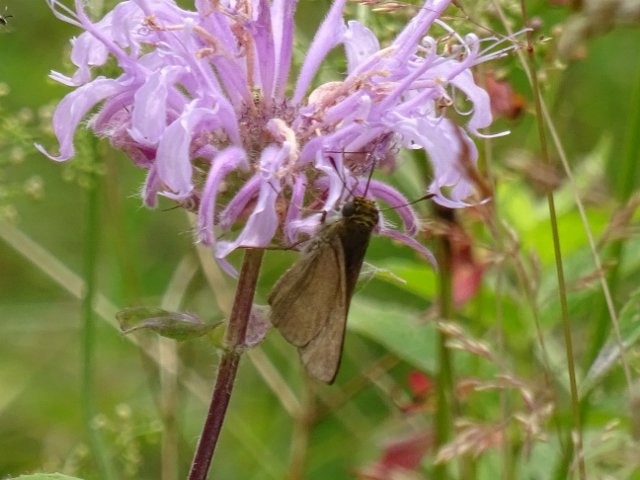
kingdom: Animalia
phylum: Arthropoda
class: Insecta
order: Lepidoptera
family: Hesperiidae
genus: Euphyes
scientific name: Euphyes vestris
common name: Dun Skipper
